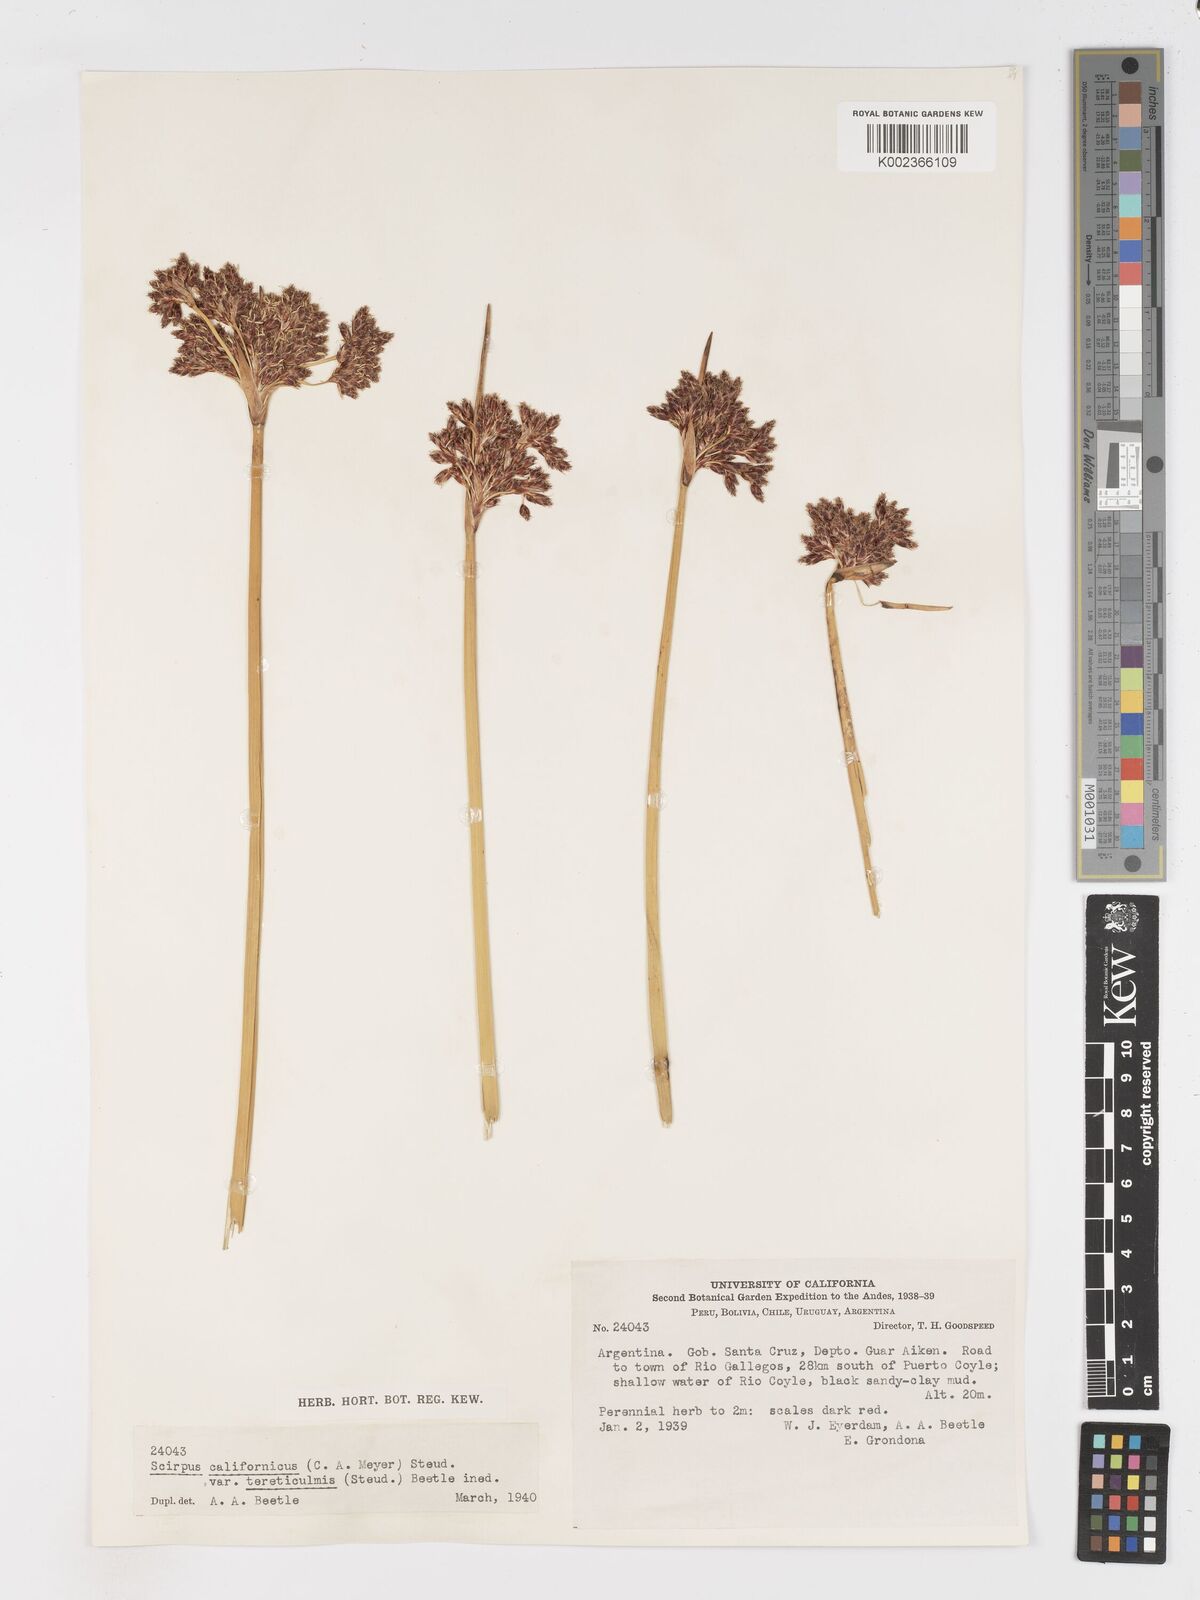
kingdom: Plantae
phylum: Tracheophyta
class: Liliopsida
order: Poales
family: Cyperaceae
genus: Schoenoplectus
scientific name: Schoenoplectus californicus
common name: California bulrush
